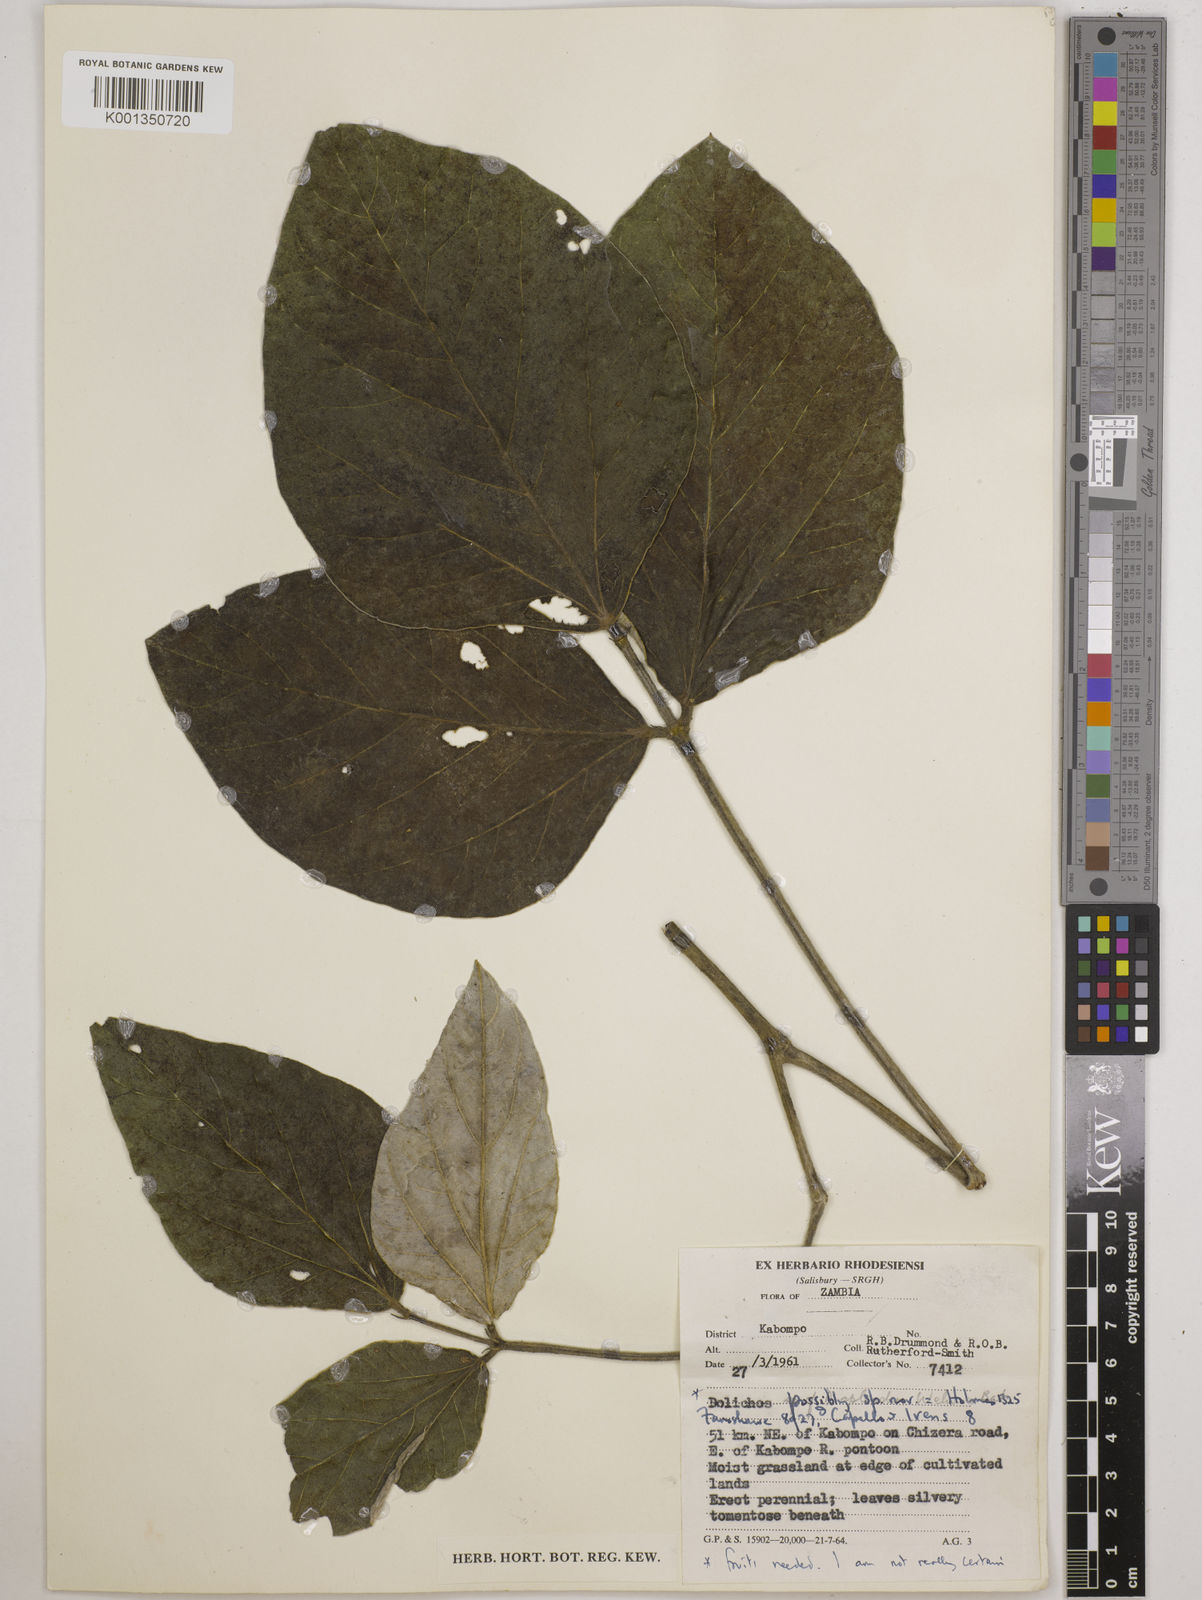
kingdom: Plantae
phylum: Tracheophyta
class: Magnoliopsida
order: Fabales
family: Fabaceae
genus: Dolichos
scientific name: Dolichos
